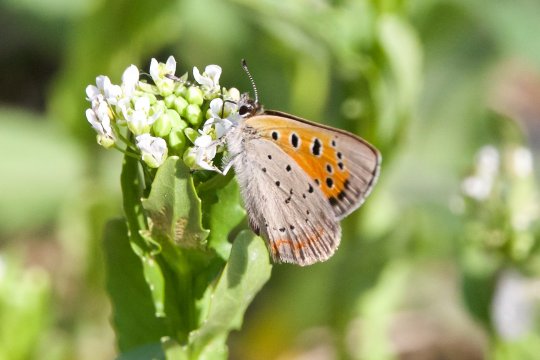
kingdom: Animalia
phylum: Arthropoda
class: Insecta
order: Lepidoptera
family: Lycaenidae
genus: Lycaena
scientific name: Lycaena phlaeas
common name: American Copper
